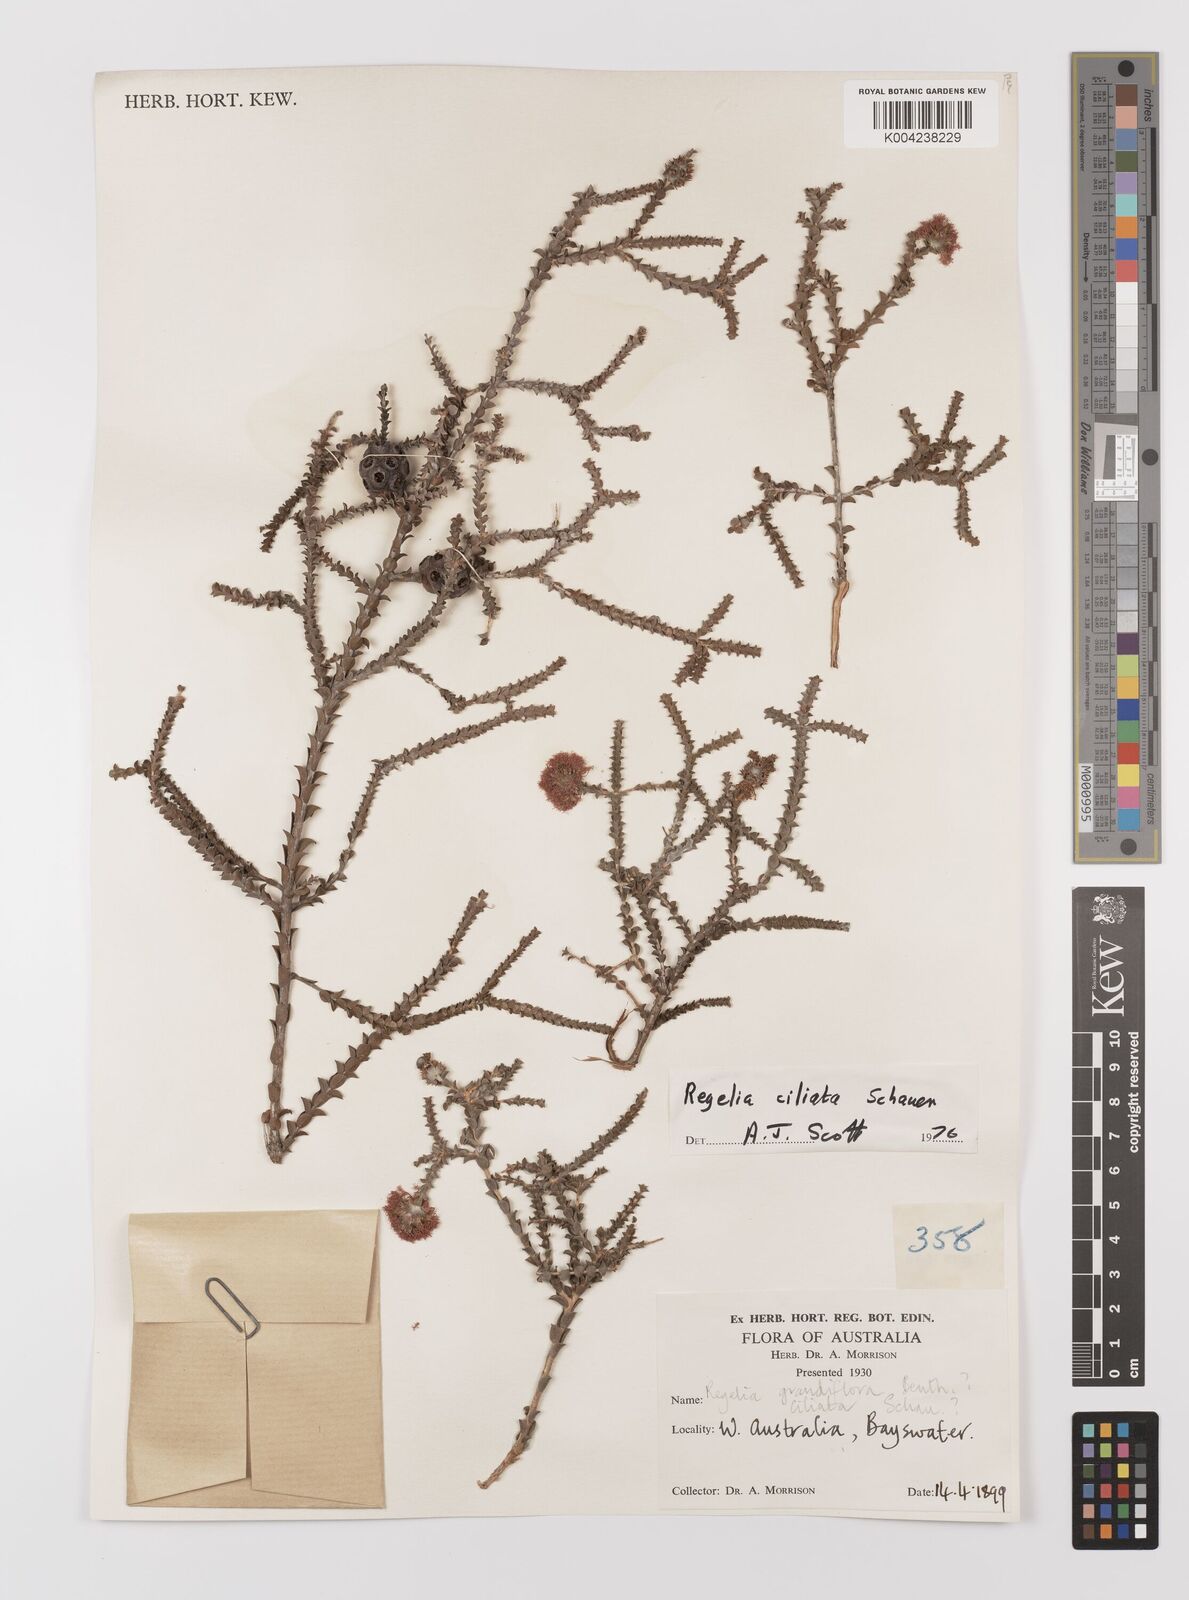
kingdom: Plantae
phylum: Tracheophyta
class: Magnoliopsida
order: Myrtales
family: Myrtaceae
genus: Melaleuca
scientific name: Melaleuca crossota
